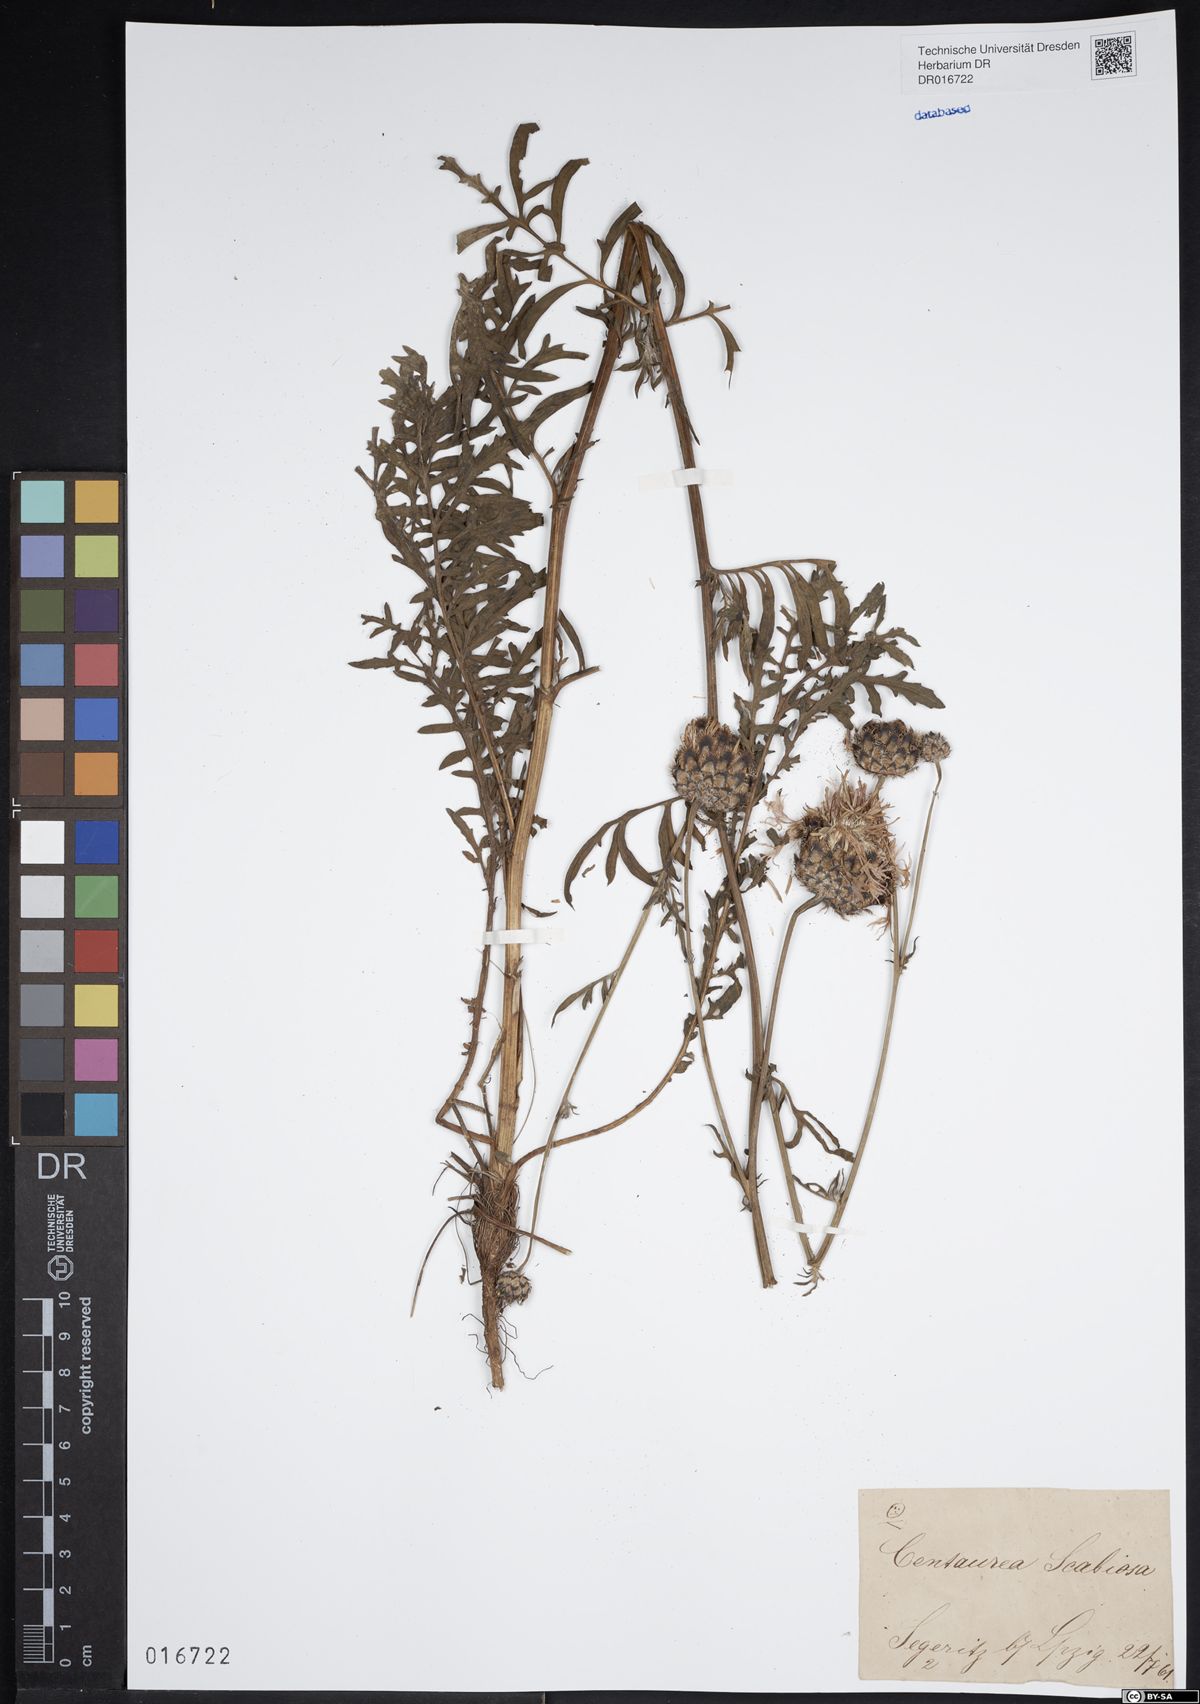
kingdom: Plantae
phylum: Tracheophyta
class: Magnoliopsida
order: Asterales
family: Asteraceae
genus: Centaurea
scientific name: Centaurea scabiosa
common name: Greater knapweed
